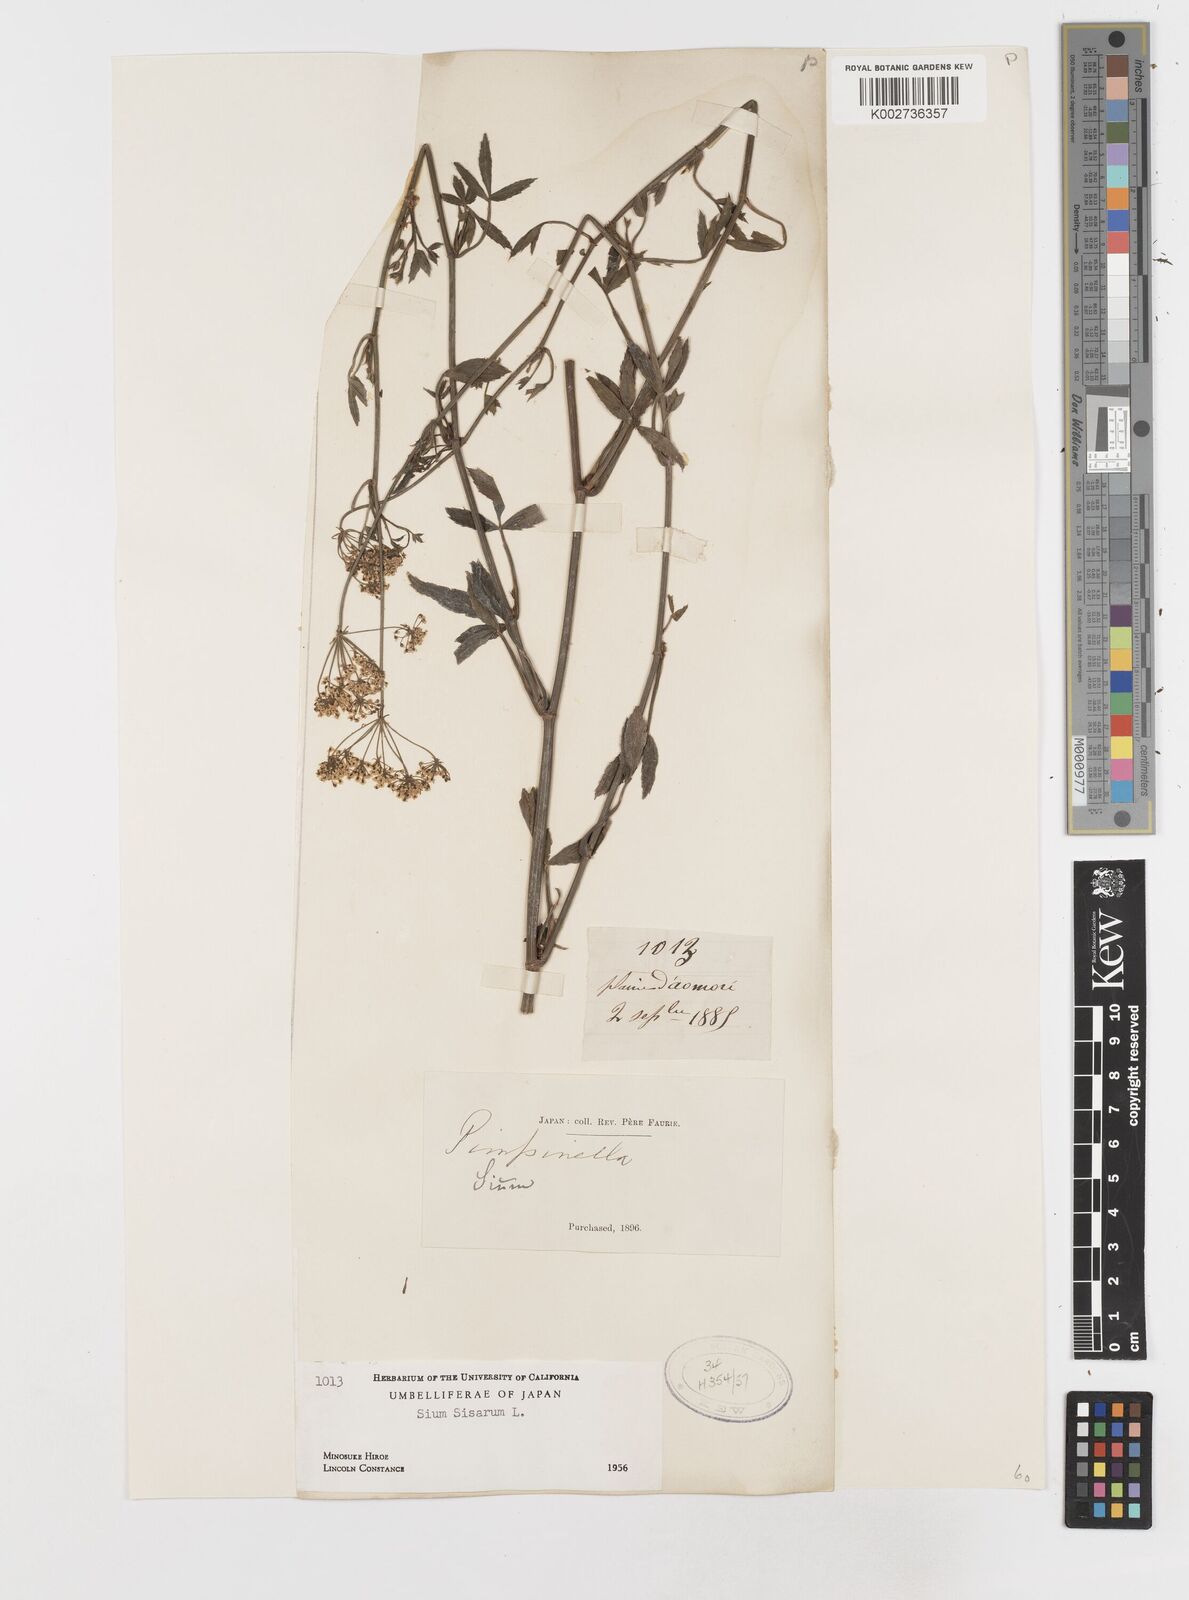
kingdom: Plantae
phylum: Tracheophyta
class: Magnoliopsida
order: Apiales
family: Apiaceae
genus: Sium
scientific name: Sium sisarum
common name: Skirret
